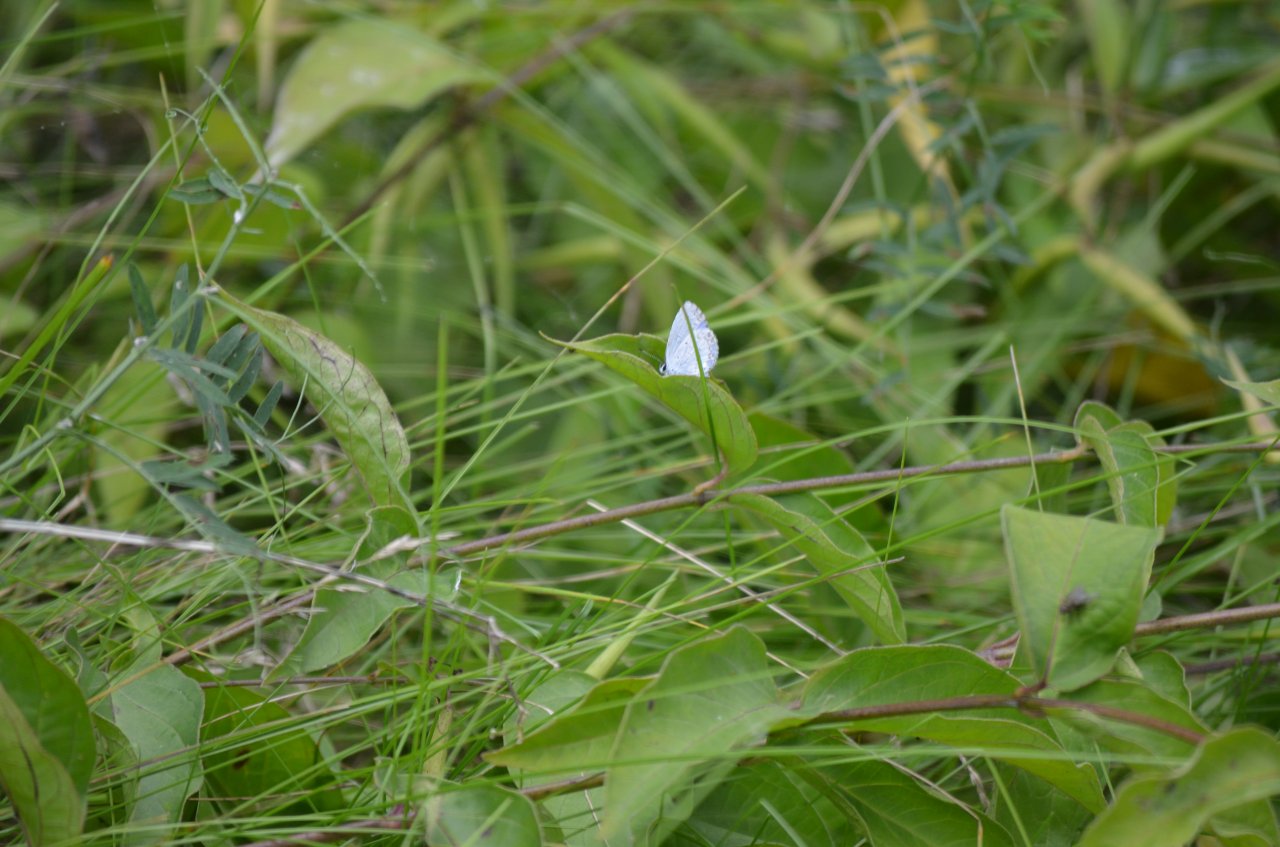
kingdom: Animalia
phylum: Arthropoda
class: Insecta
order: Lepidoptera
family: Lycaenidae
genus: Celastrina
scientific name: Celastrina lucia
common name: Northern Spring Azure
